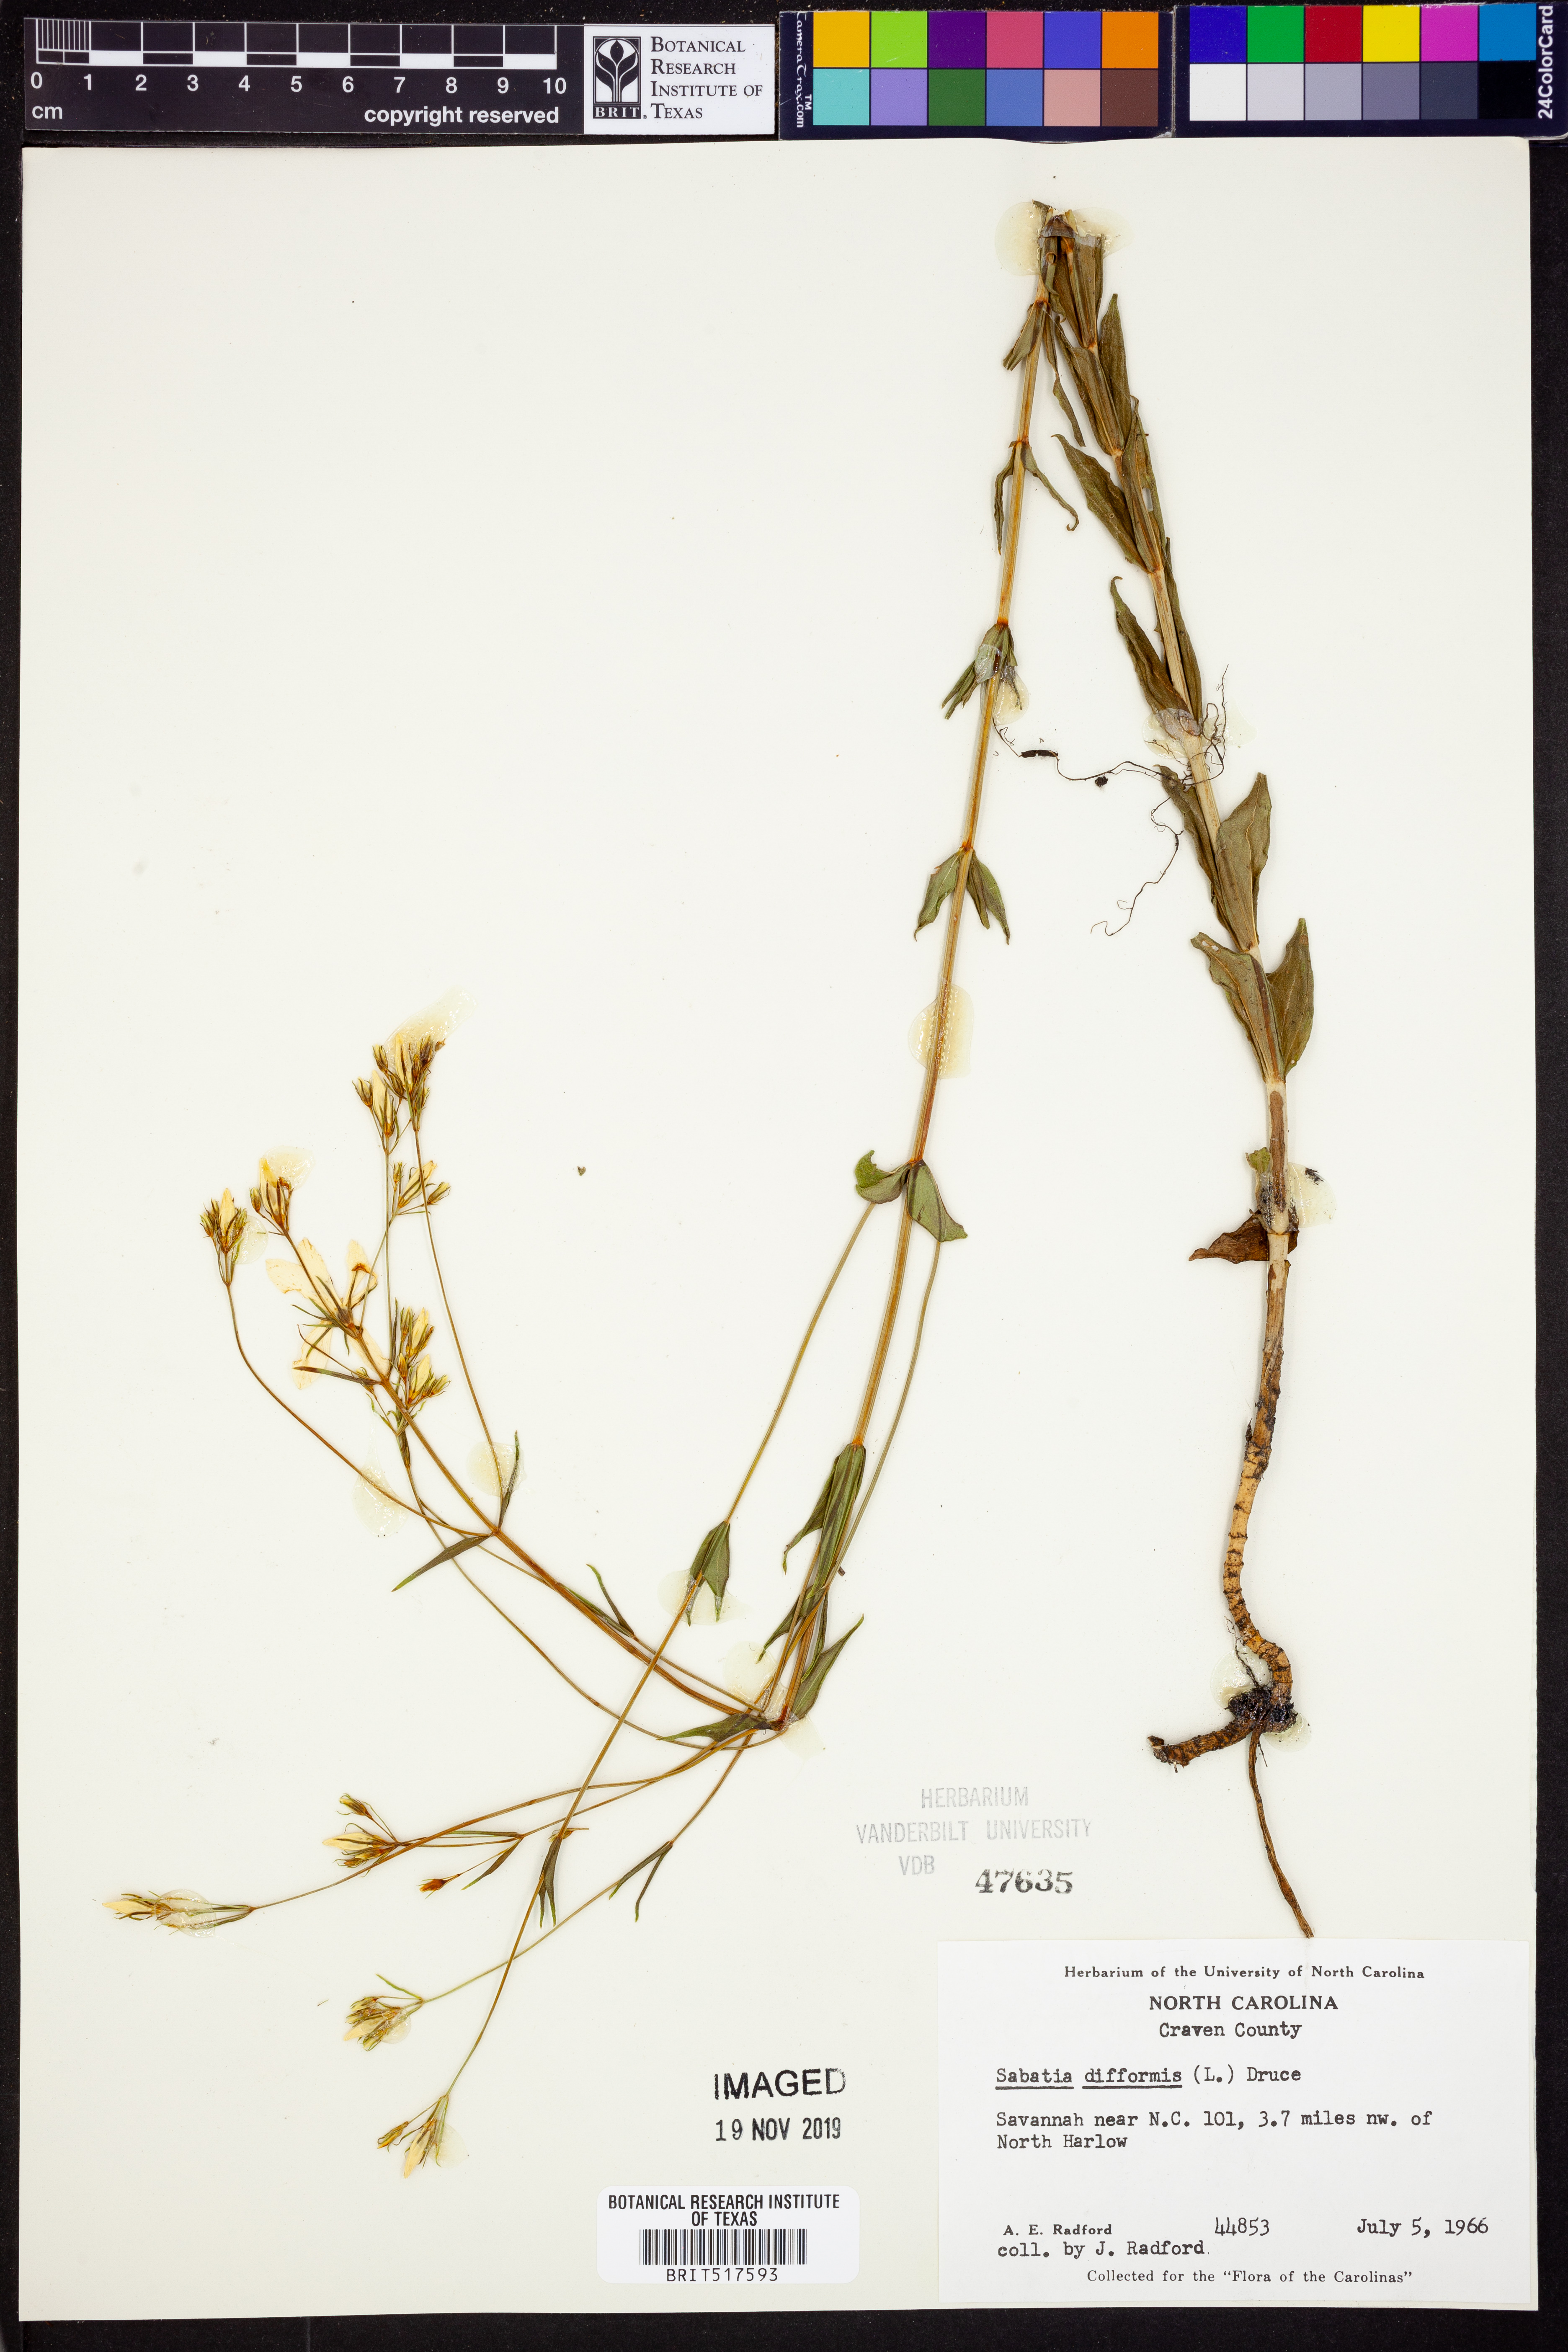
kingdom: Plantae
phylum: Tracheophyta
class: Magnoliopsida
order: Gentianales
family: Gentianaceae
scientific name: Gentianaceae
